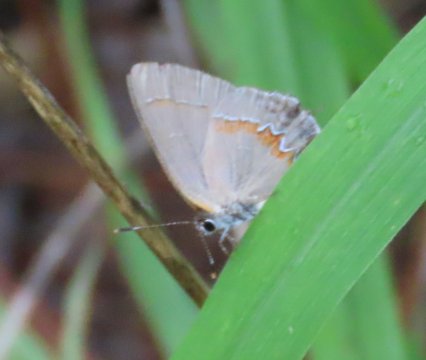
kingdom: Animalia
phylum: Arthropoda
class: Insecta
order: Lepidoptera
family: Lycaenidae
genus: Calycopis
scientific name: Calycopis cecrops
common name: Red-banded Hairstreak
